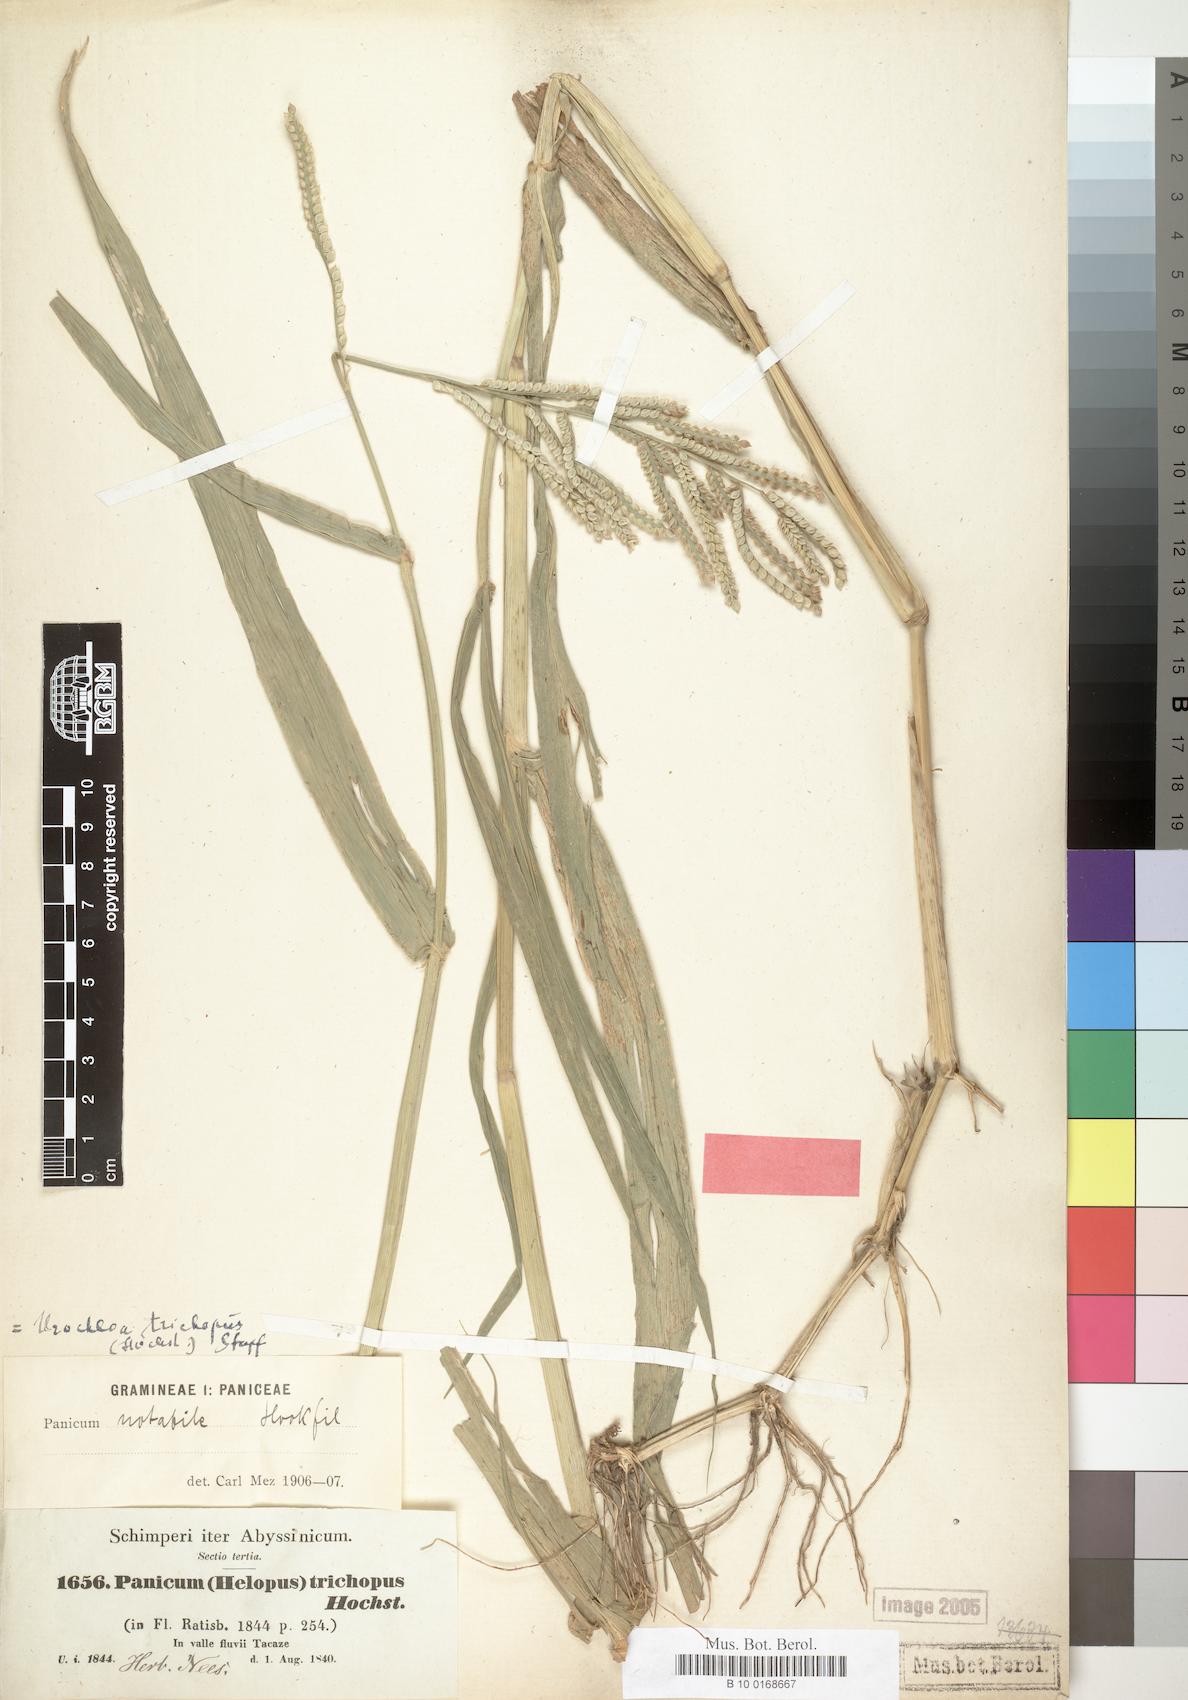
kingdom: Plantae
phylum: Tracheophyta
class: Liliopsida
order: Poales
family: Poaceae
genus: Urochloa
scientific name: Urochloa trichopus
